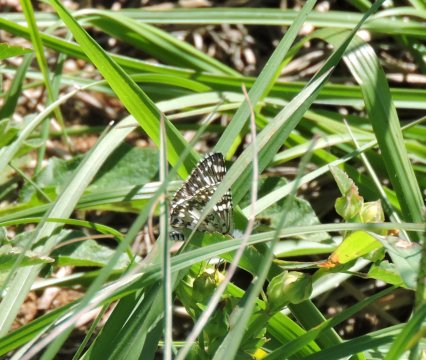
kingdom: Animalia
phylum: Arthropoda
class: Insecta
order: Lepidoptera
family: Hesperiidae
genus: Pyrgus
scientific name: Pyrgus
